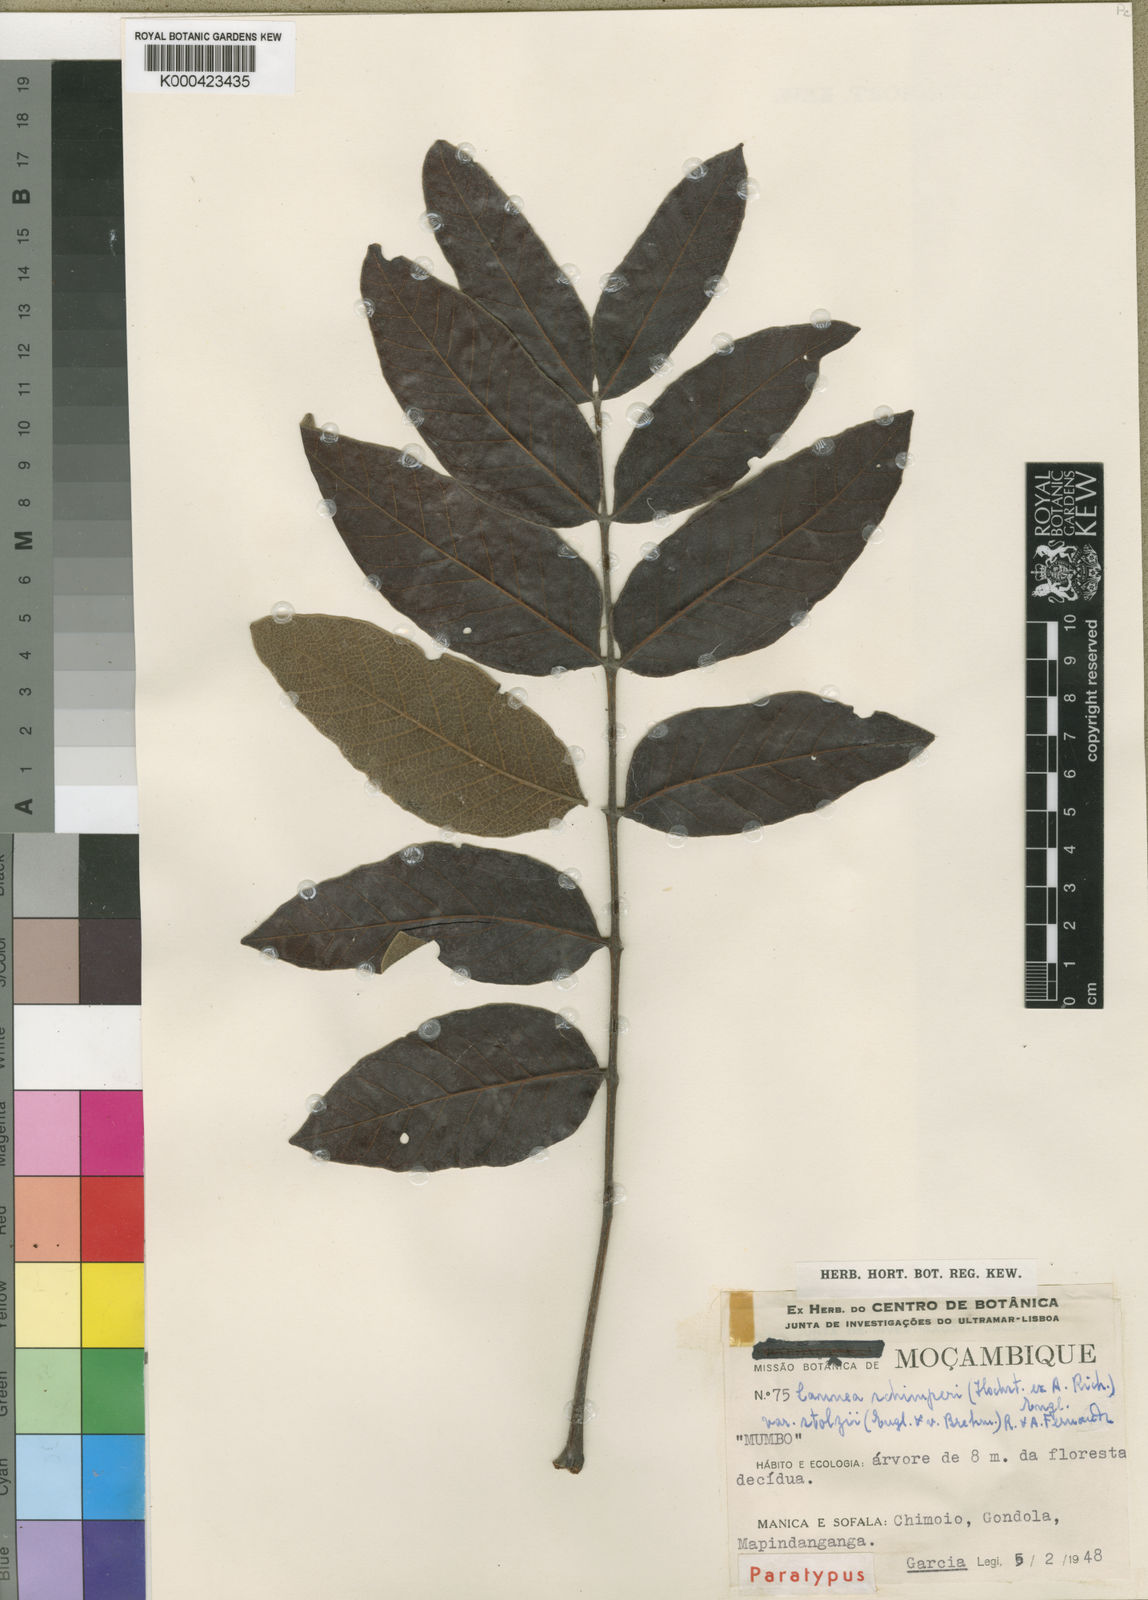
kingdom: Plantae
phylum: Tracheophyta
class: Magnoliopsida
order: Sapindales
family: Anacardiaceae
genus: Lannea
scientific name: Lannea schimperi
